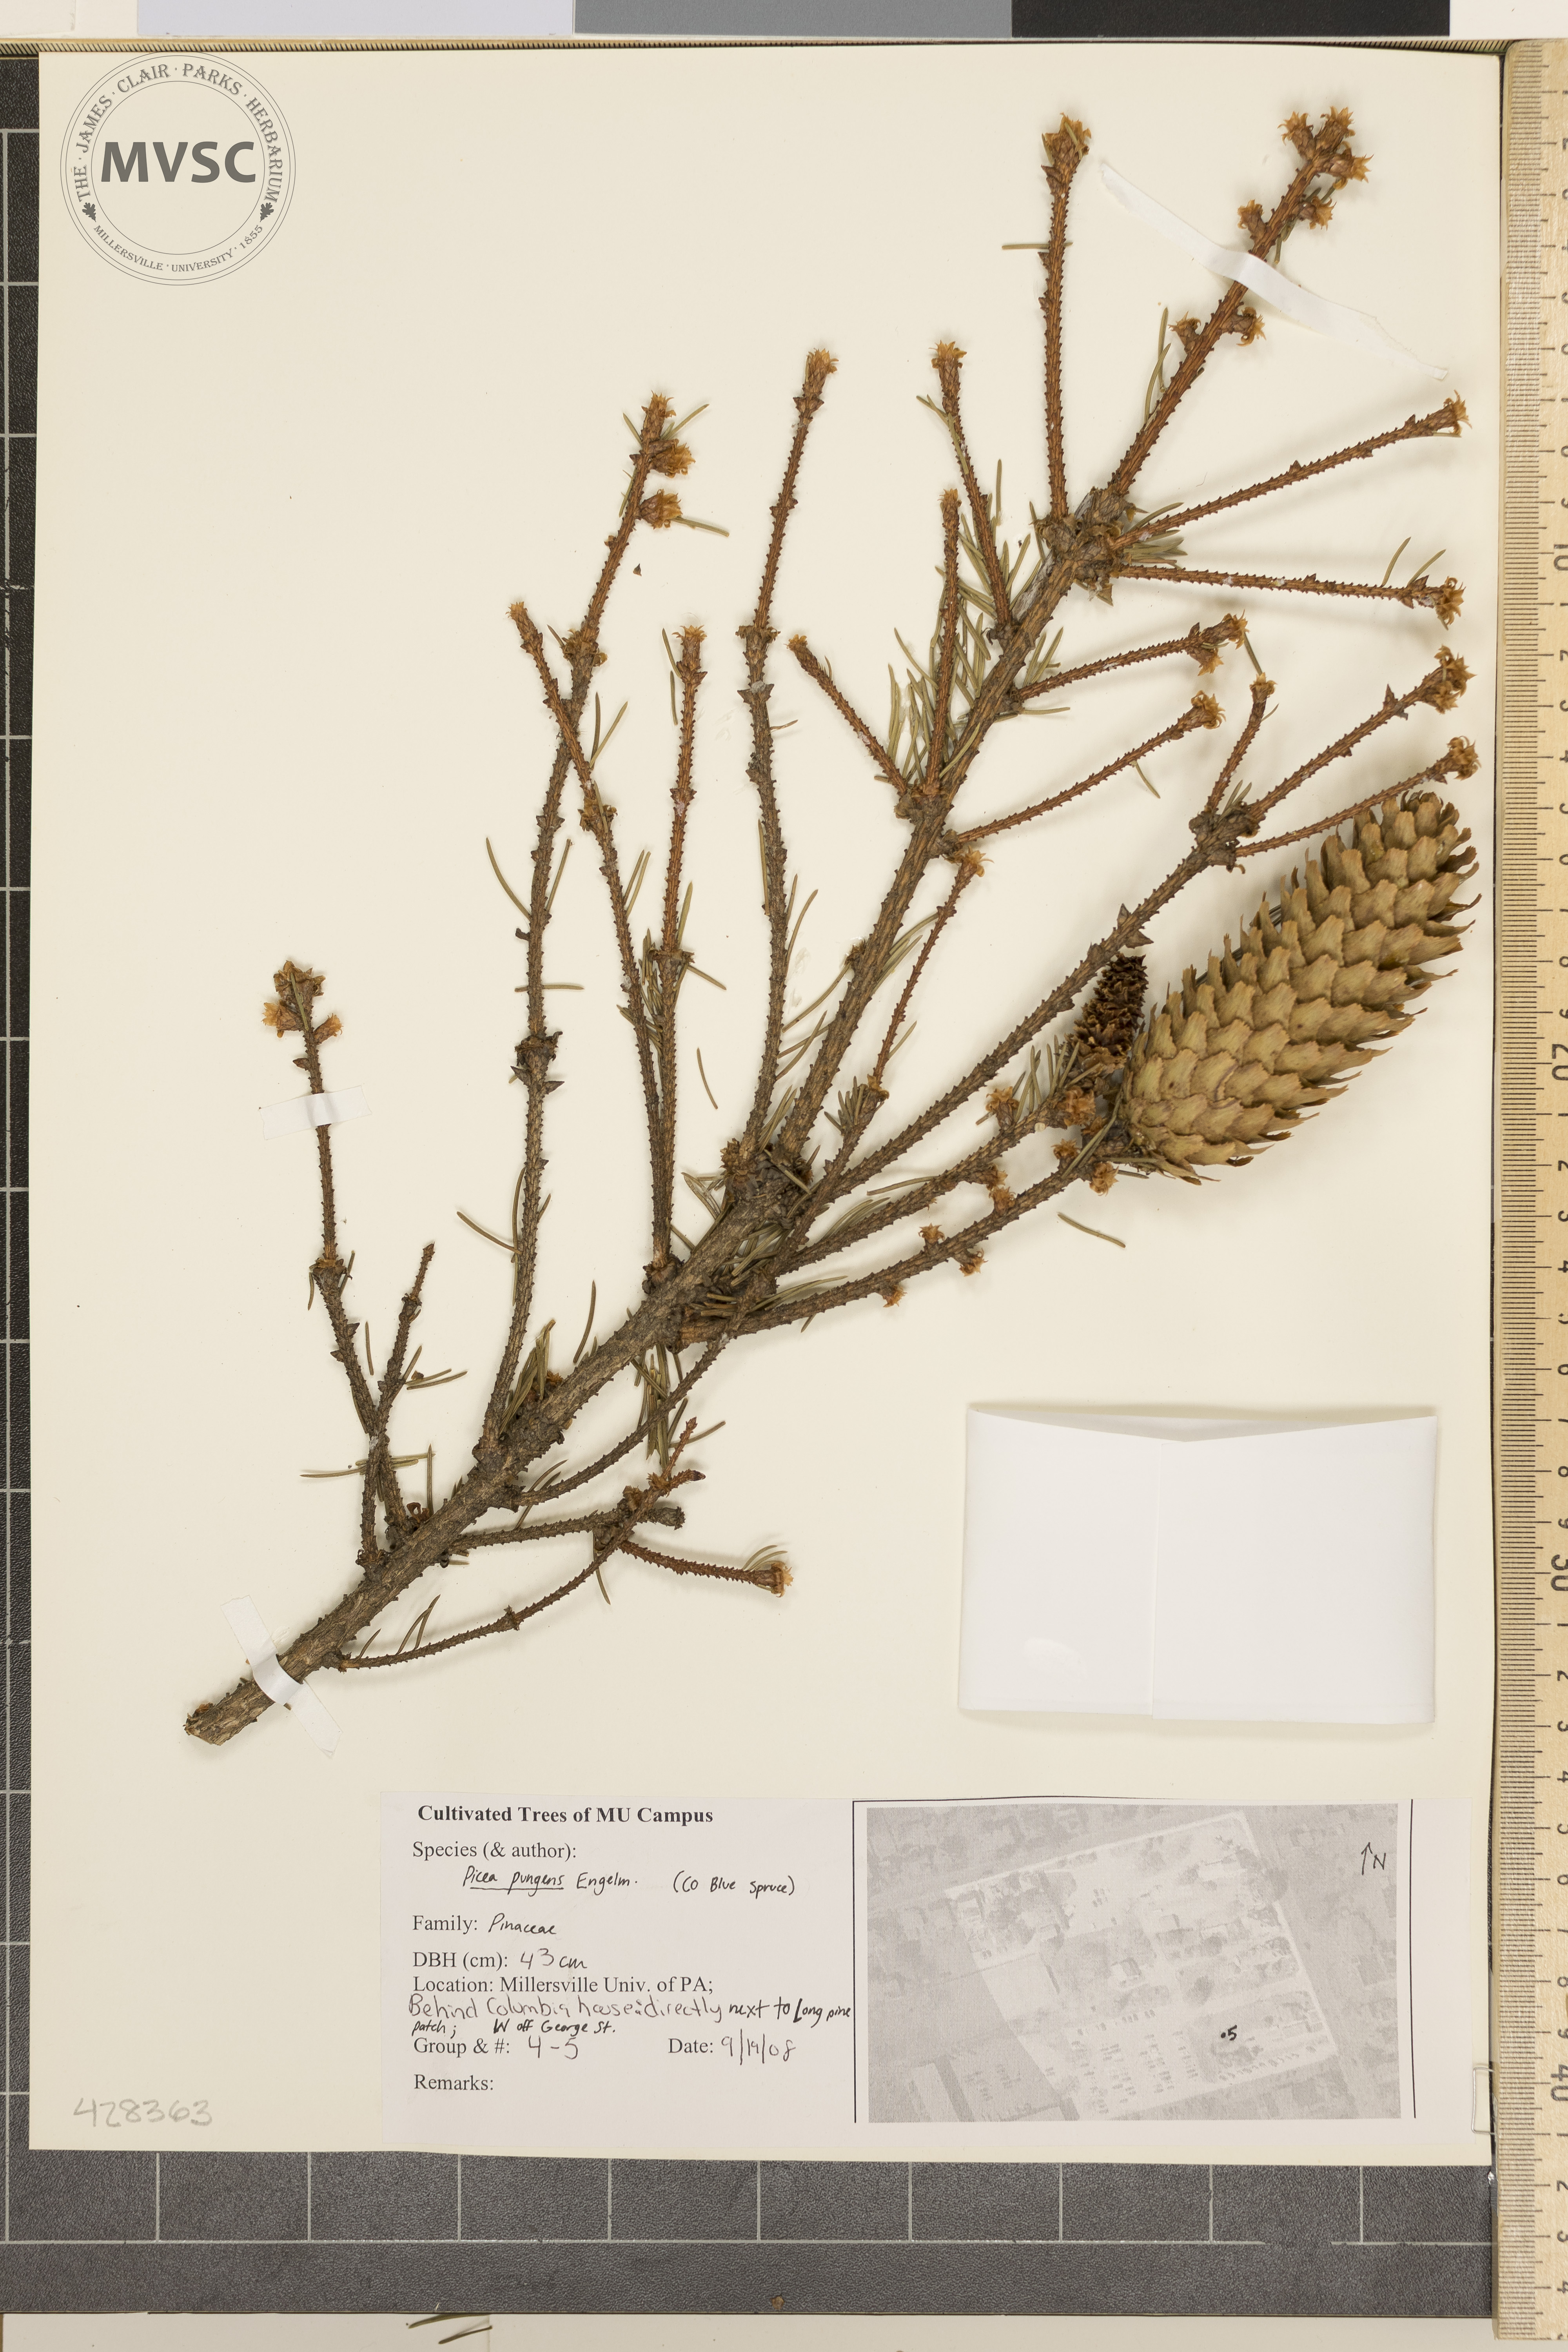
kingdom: Plantae
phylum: Tracheophyta
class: Pinopsida
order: Pinales
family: Pinaceae
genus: Picea
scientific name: Picea pungens
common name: Colorado Blue Spruce
